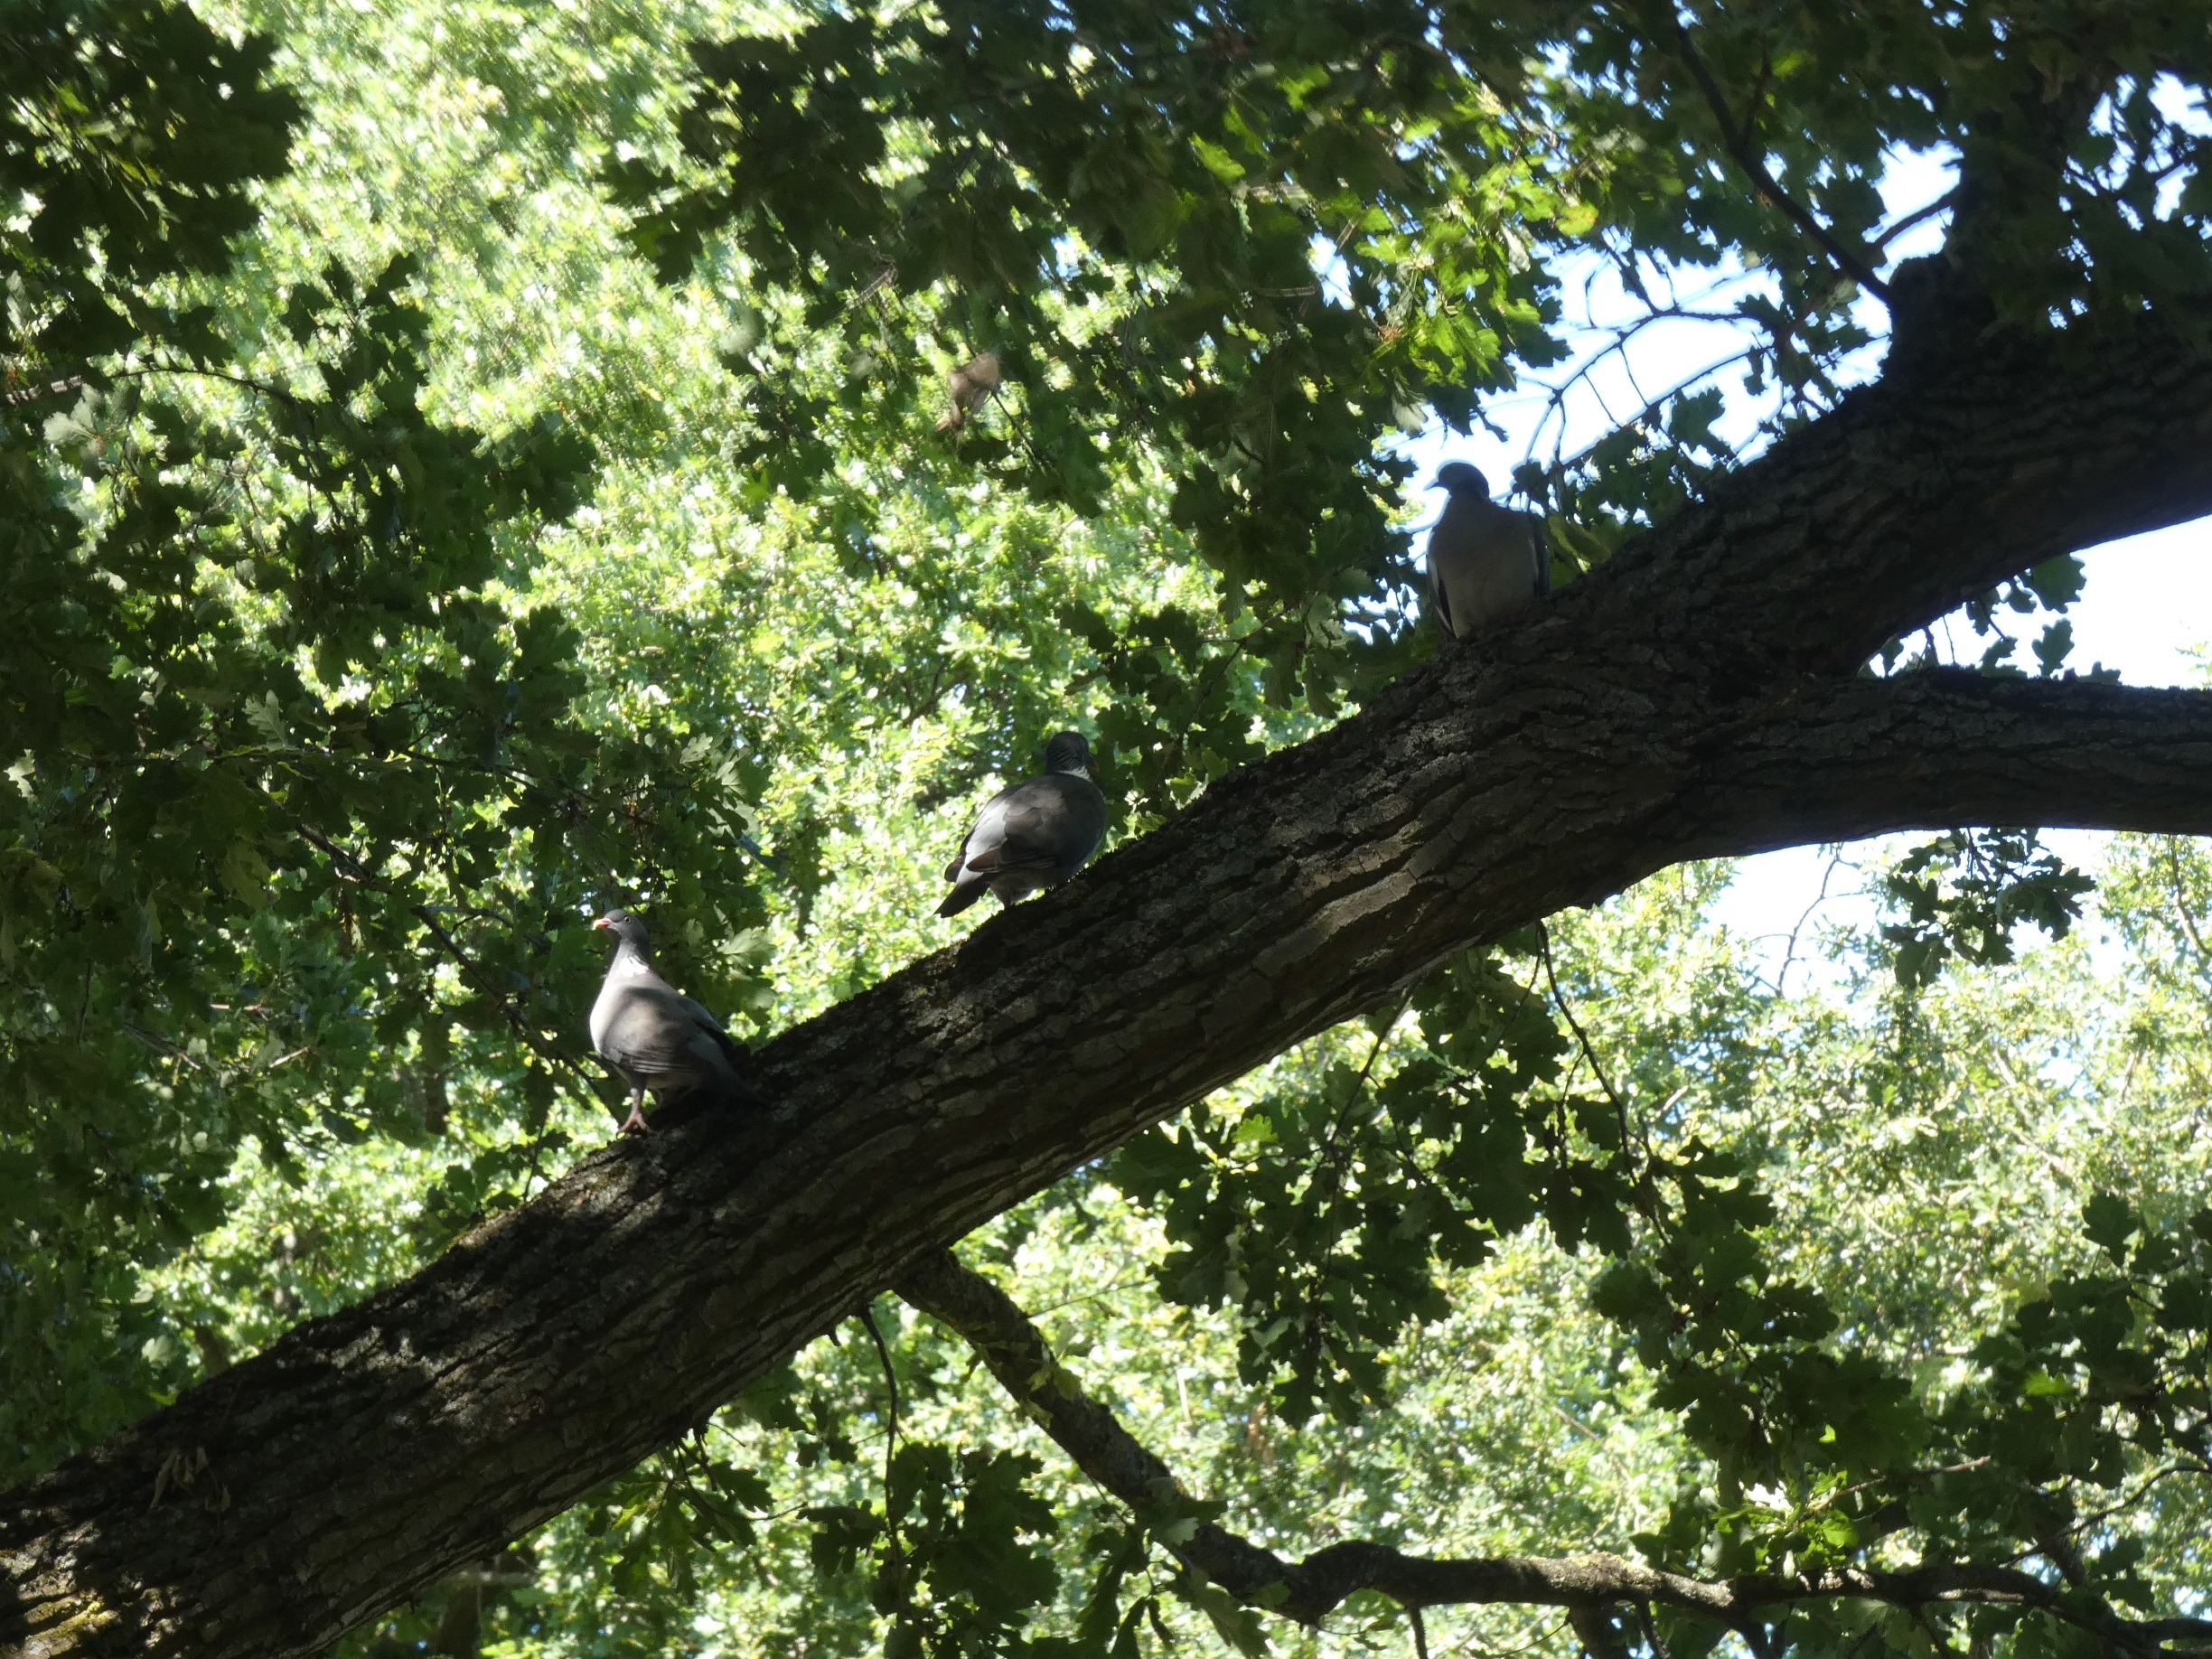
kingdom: Animalia
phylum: Chordata
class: Aves
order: Columbiformes
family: Columbidae
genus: Columba
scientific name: Columba palumbus
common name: Ringdue
